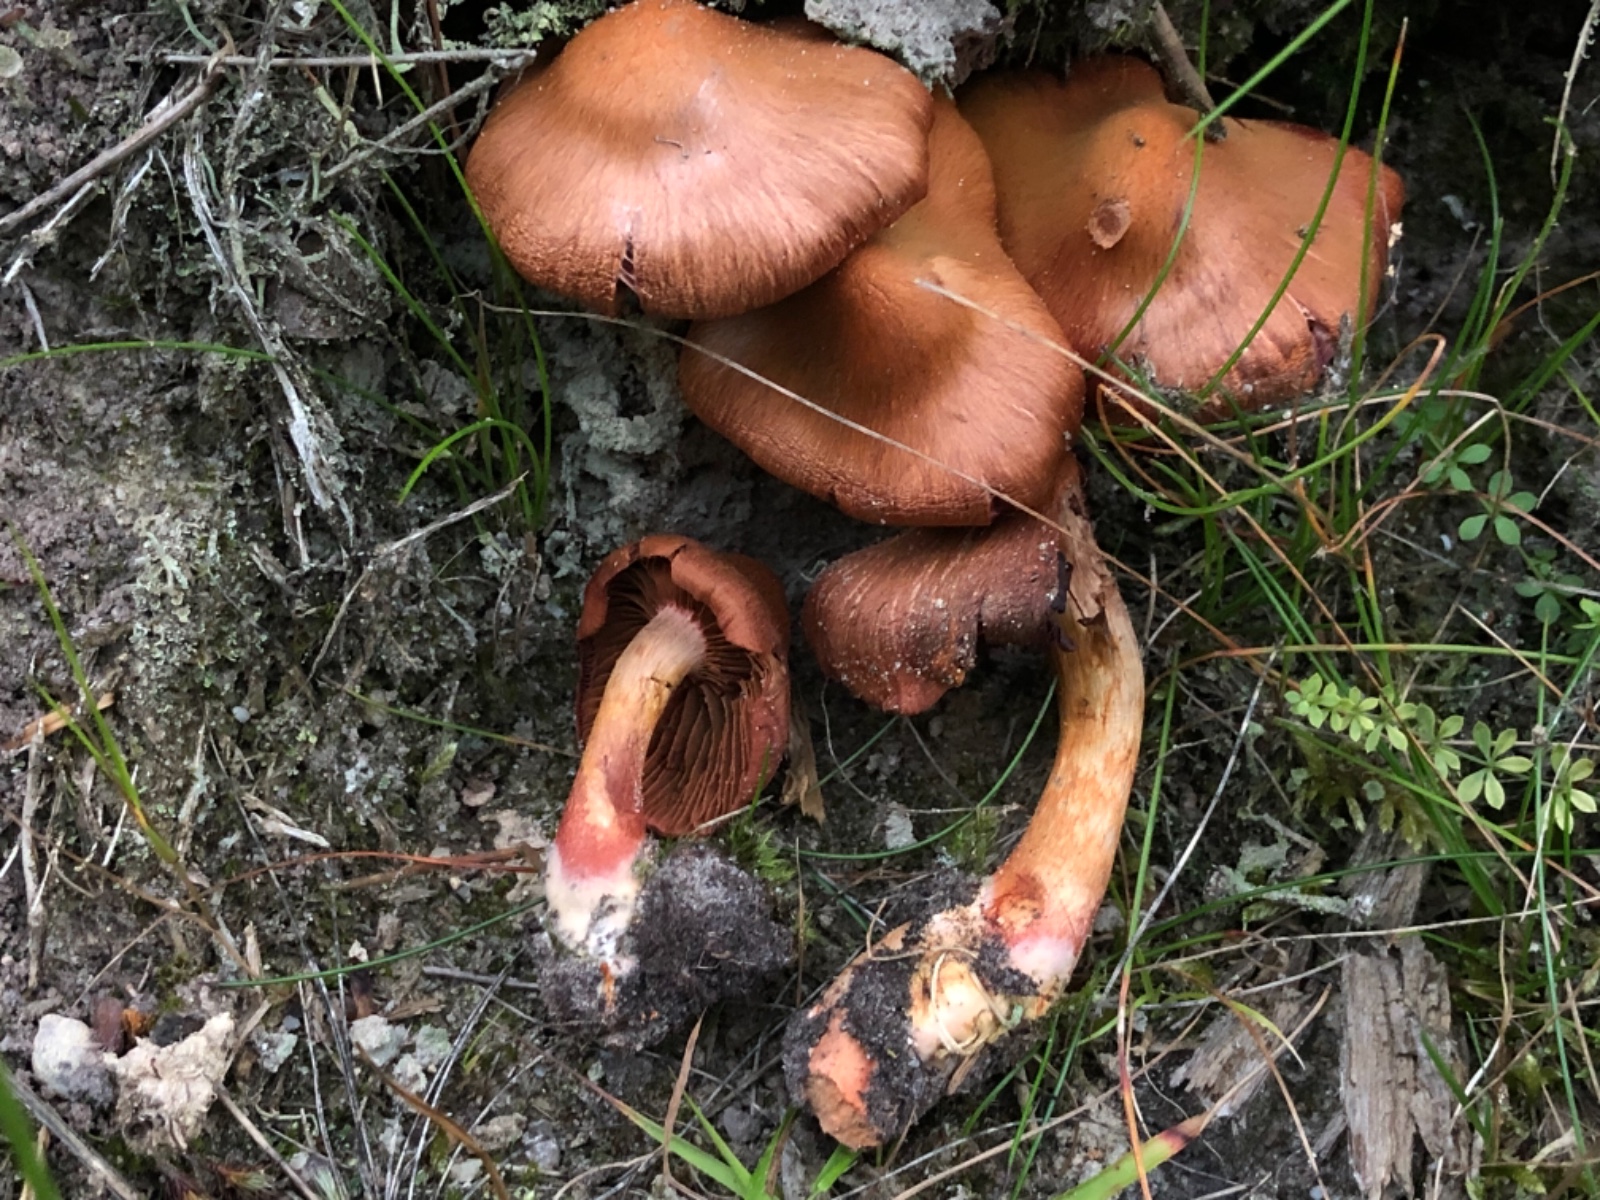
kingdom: Fungi
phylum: Basidiomycota
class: Agaricomycetes
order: Agaricales
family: Cortinariaceae
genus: Cortinarius
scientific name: Cortinarius purpureus
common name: brunrød slørhat
